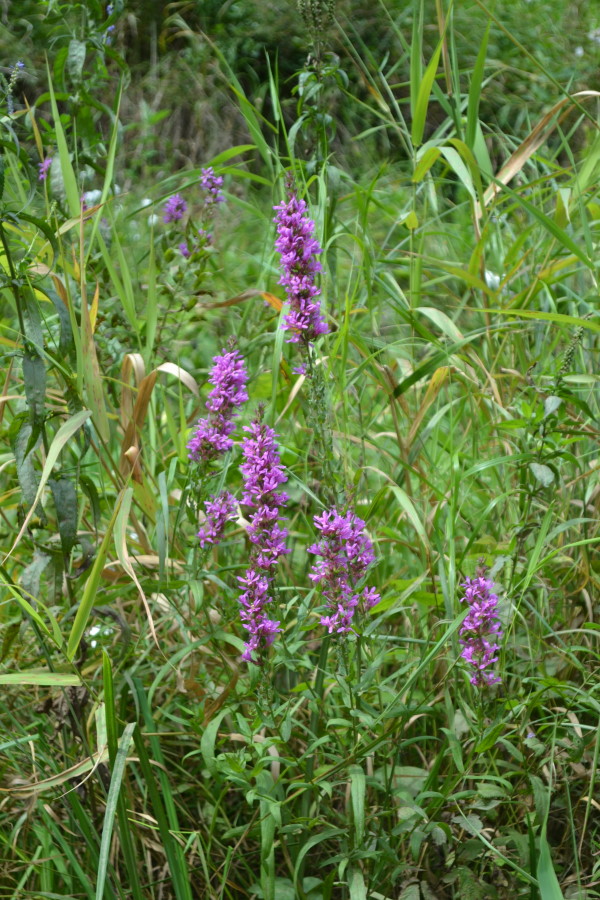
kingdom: Plantae
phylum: Tracheophyta
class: Magnoliopsida
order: Myrtales
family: Lythraceae
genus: Lythrum
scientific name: Lythrum salicaria
